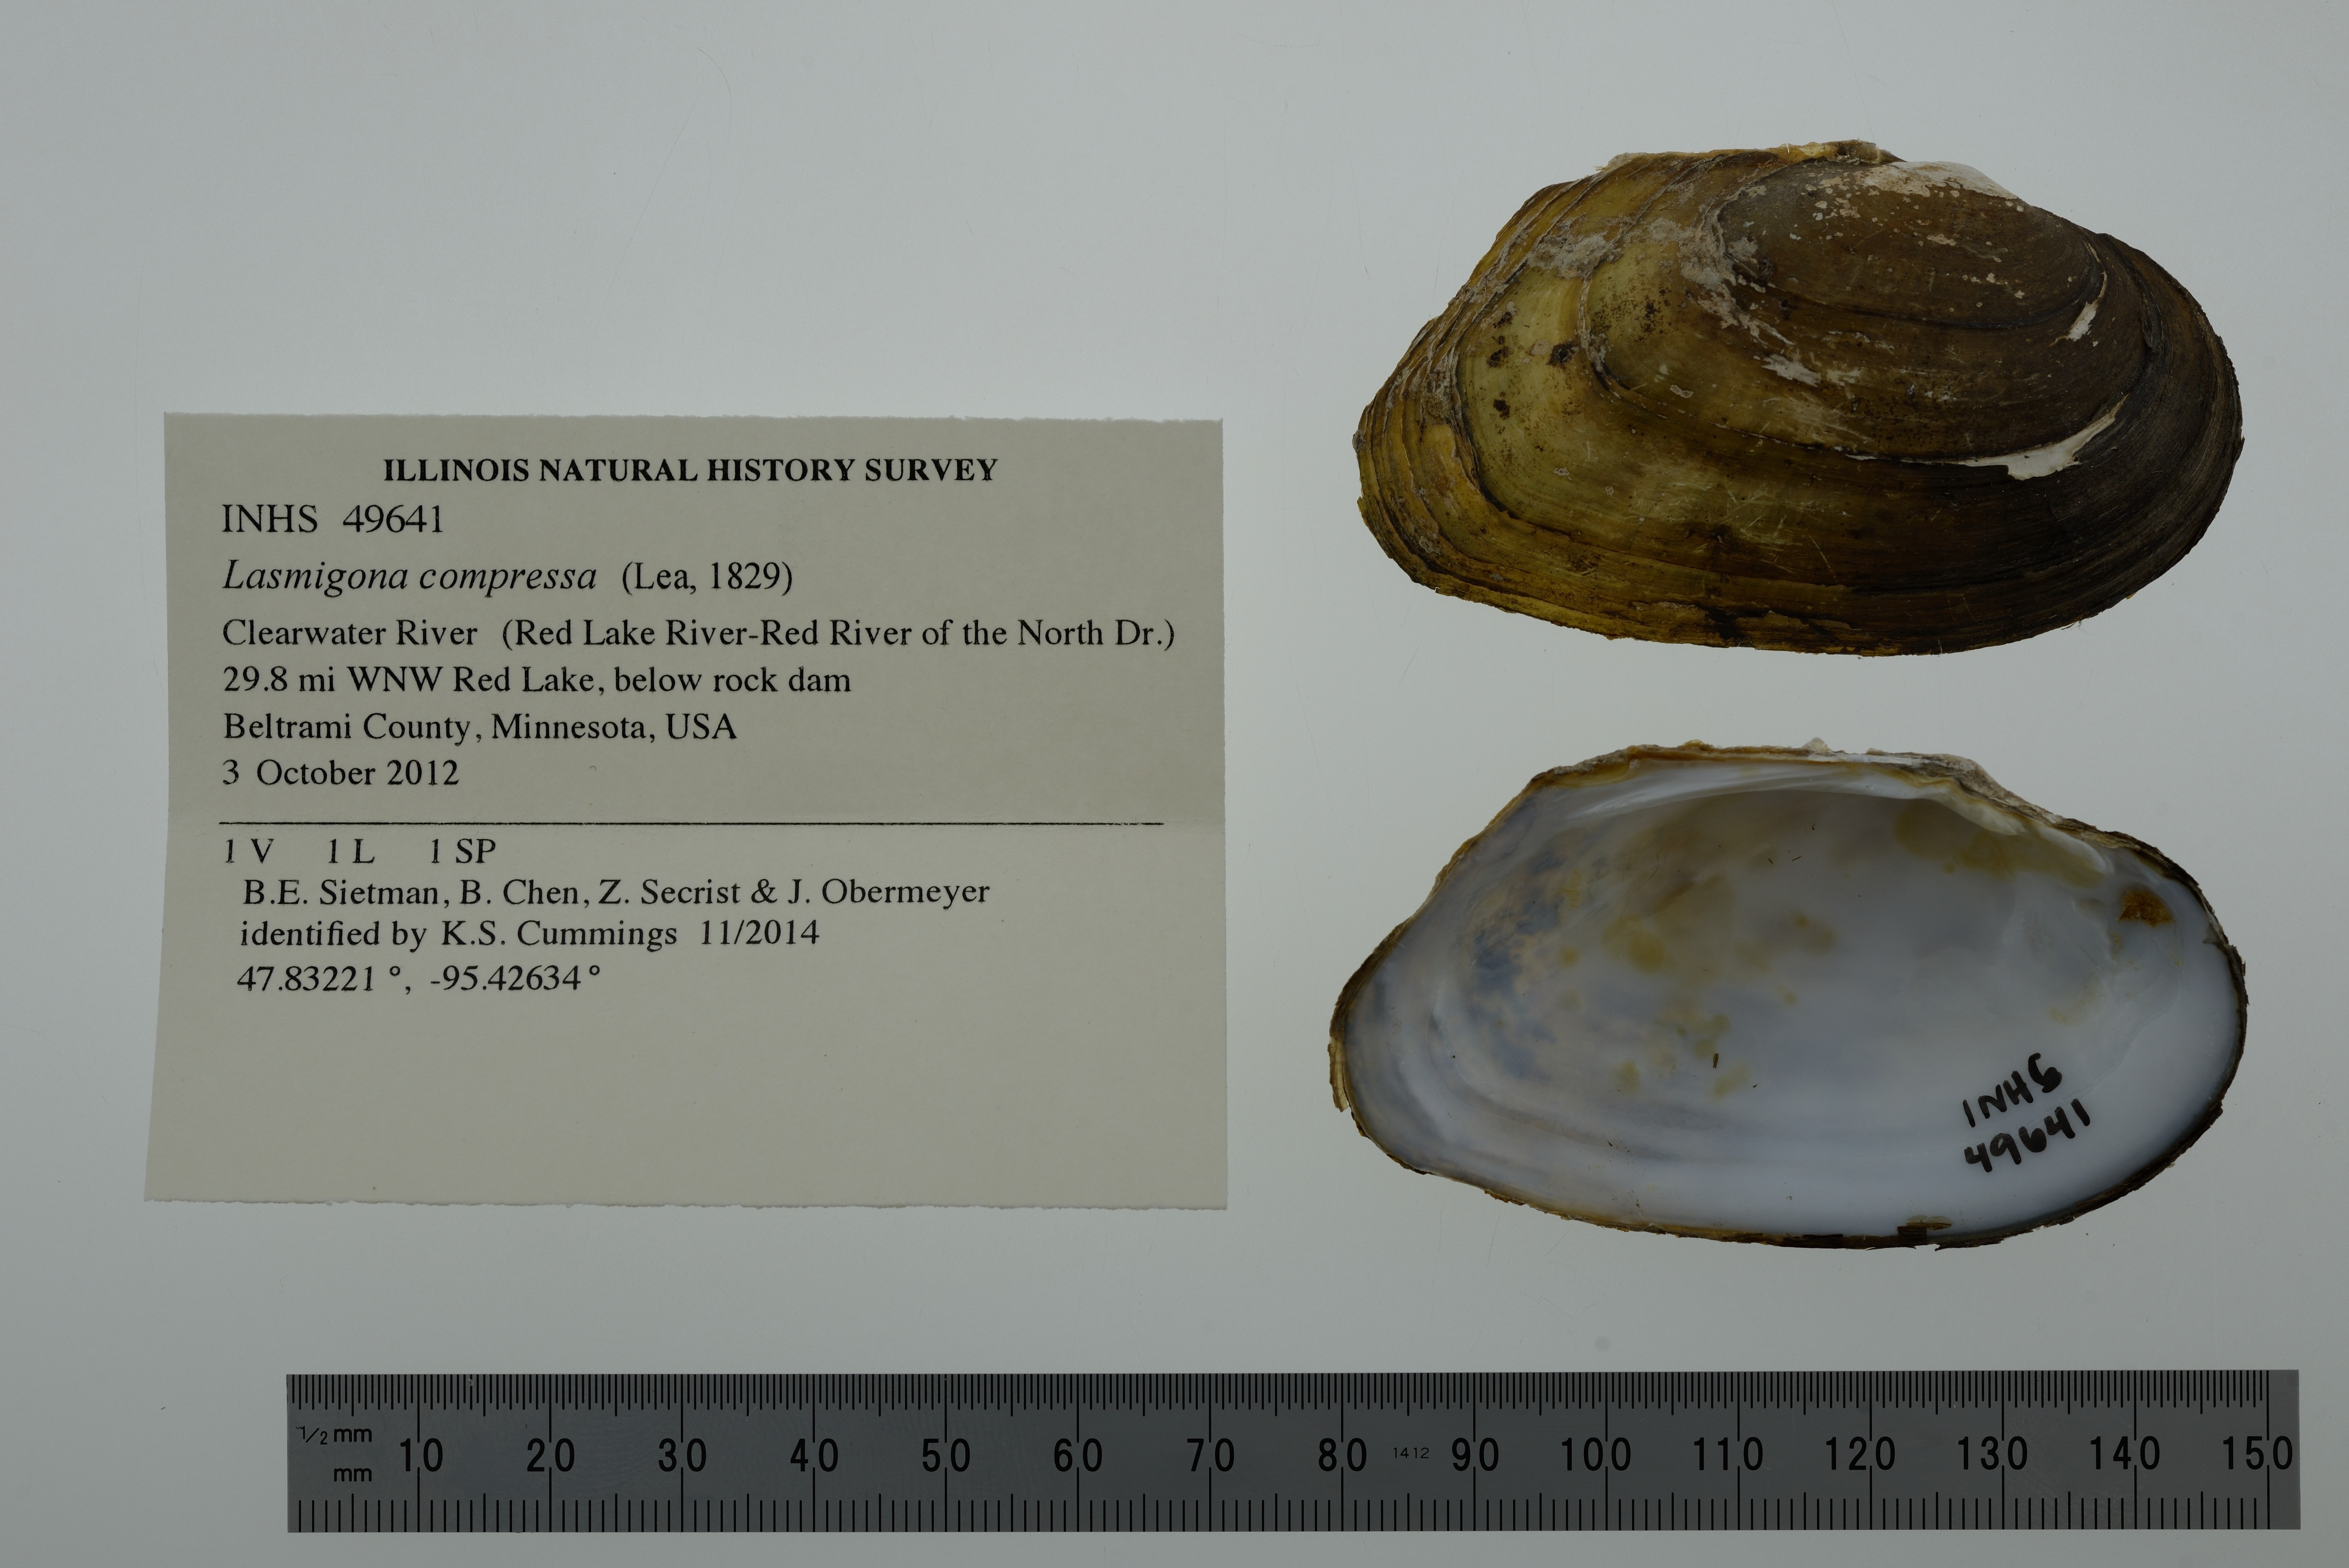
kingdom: Animalia
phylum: Mollusca
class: Bivalvia
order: Unionida
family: Unionidae
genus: Lasmigona
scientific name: Lasmigona compressa
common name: Creek heelsplitter
